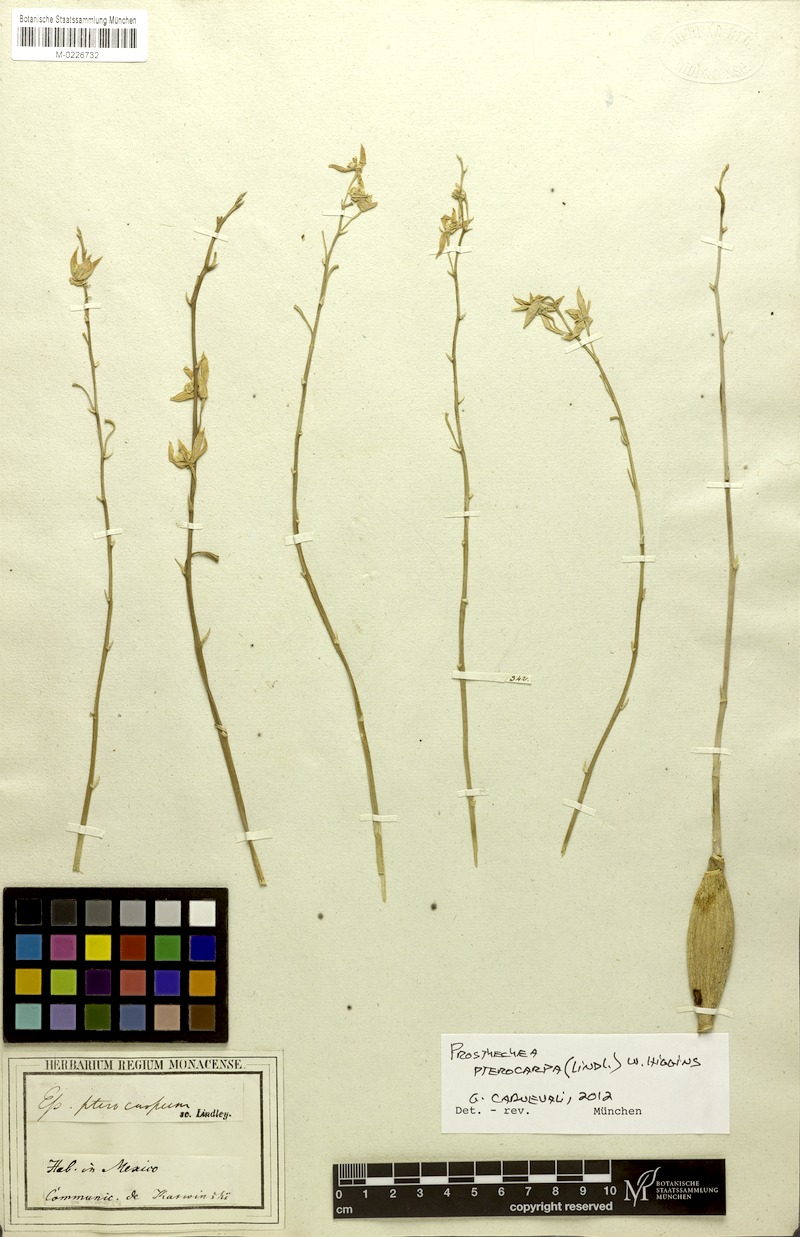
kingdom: Plantae
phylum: Tracheophyta
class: Liliopsida
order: Asparagales
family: Orchidaceae
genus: Prosthechea
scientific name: Prosthechea pterocarpa
